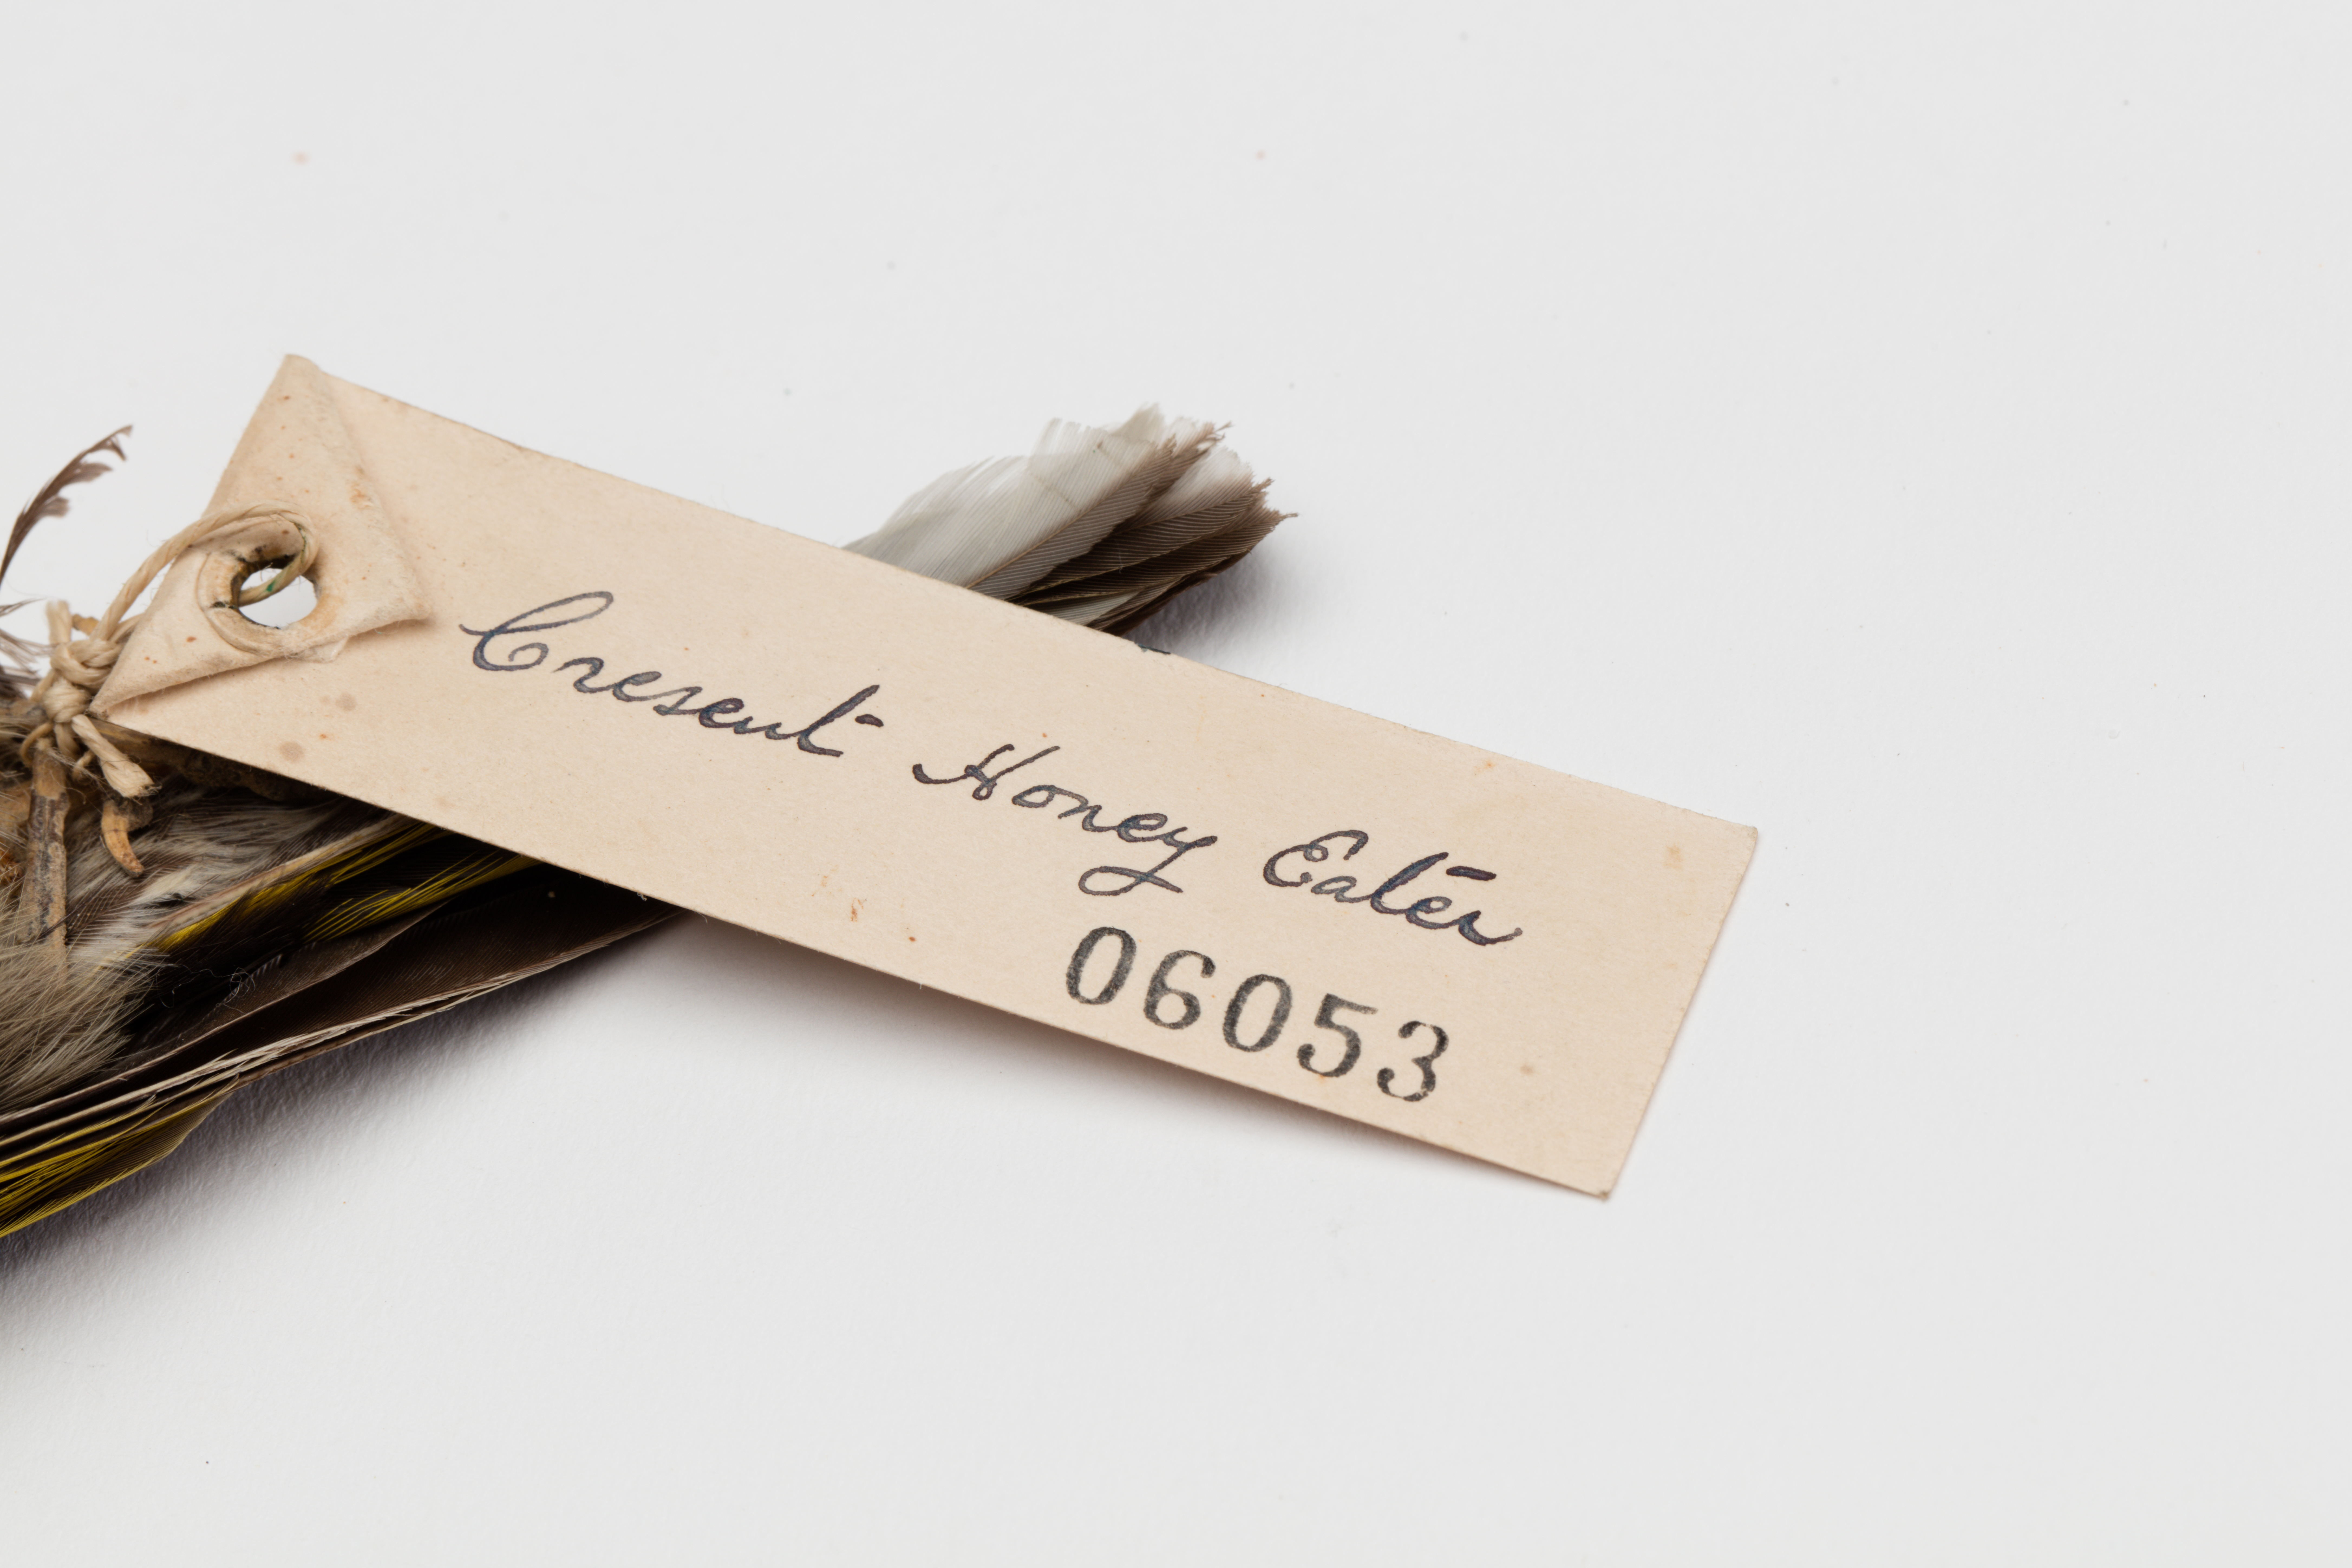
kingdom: Animalia
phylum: Chordata
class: Aves
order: Passeriformes
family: Meliphagidae
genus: Phylidonyris
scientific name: Phylidonyris pyrrhopterus
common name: Crescent honeyeater
